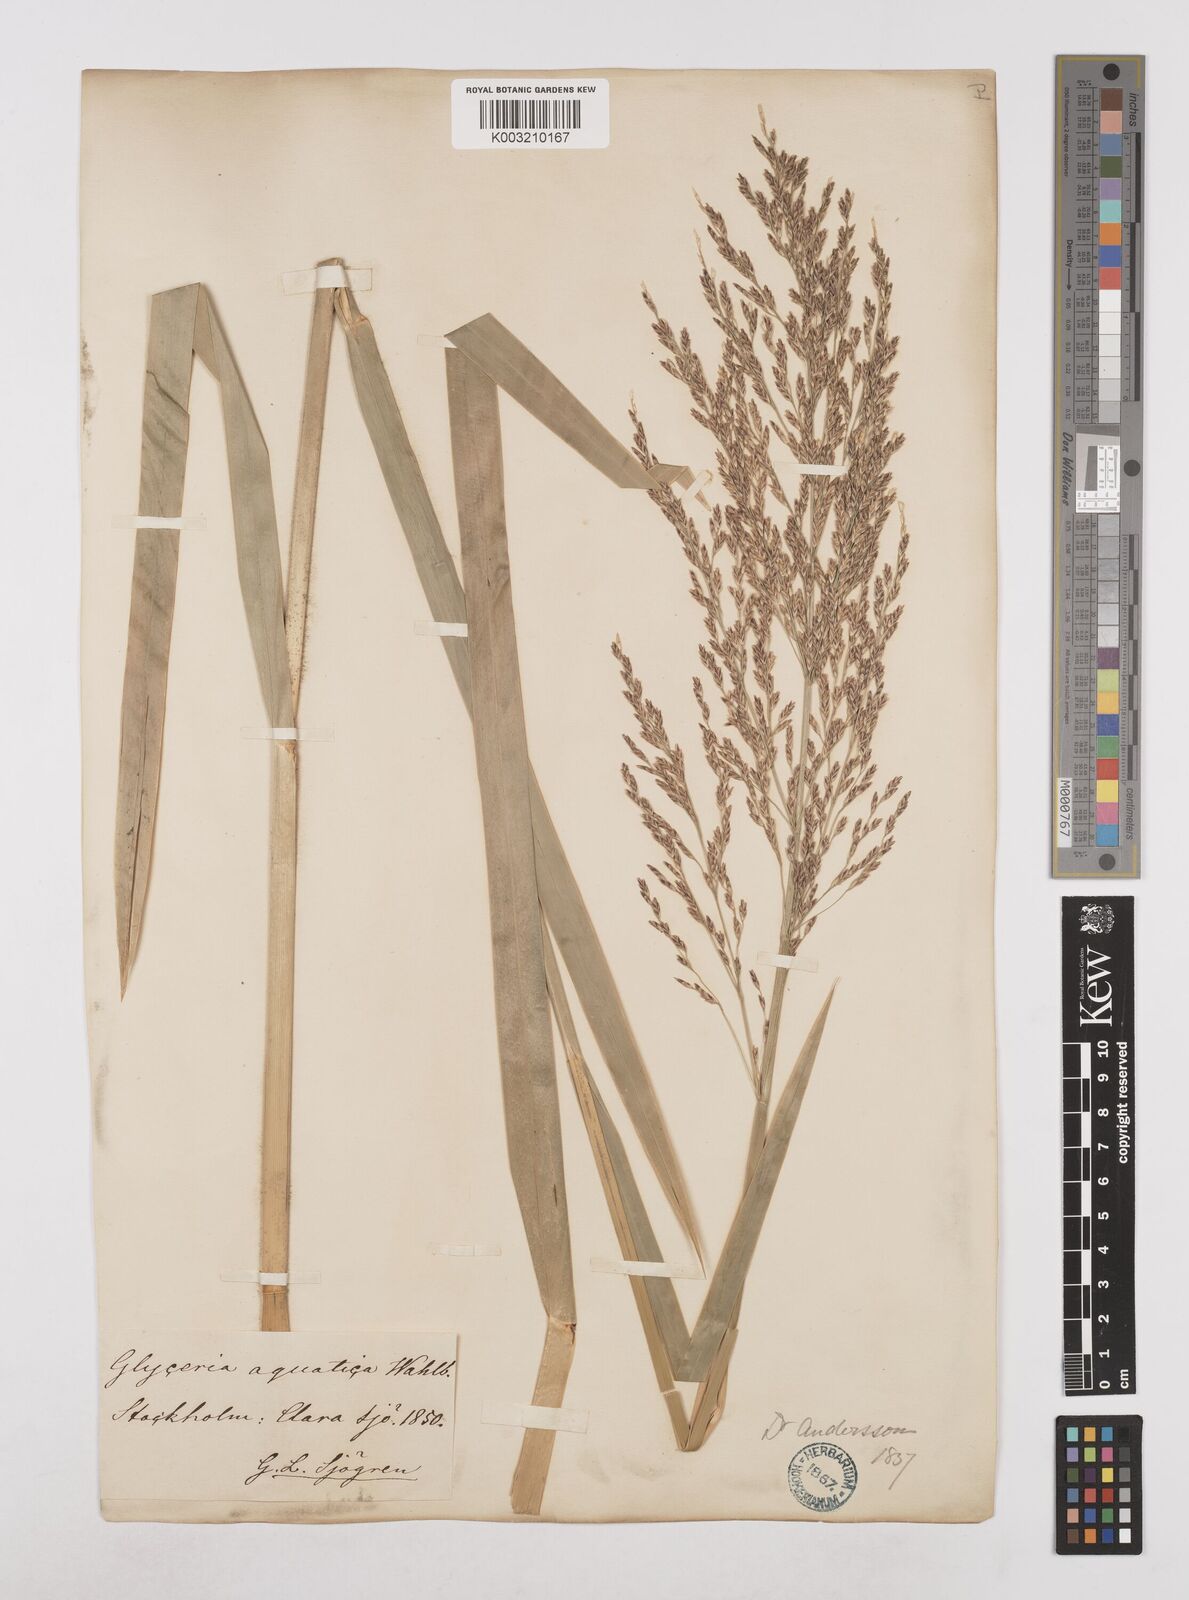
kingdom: Plantae
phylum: Tracheophyta
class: Liliopsida
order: Poales
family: Poaceae
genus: Glyceria
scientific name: Glyceria maxima
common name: Reed mannagrass
